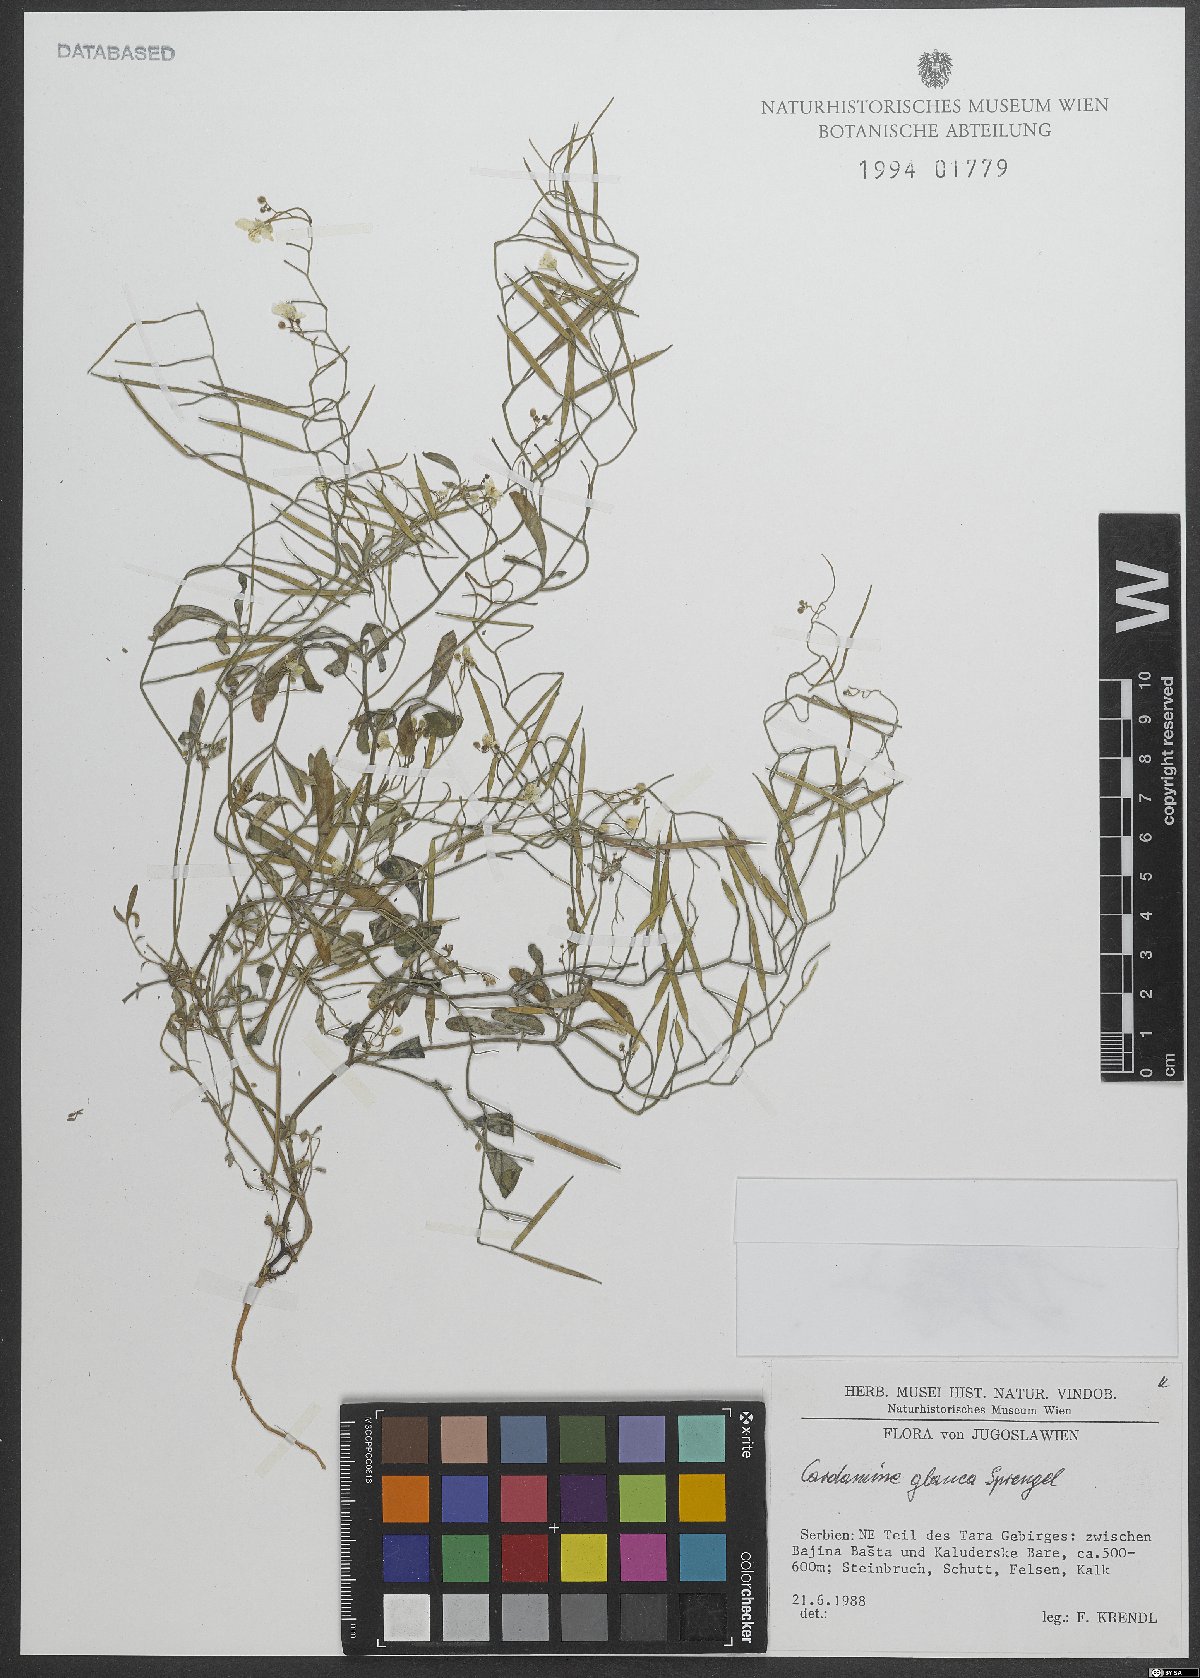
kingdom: Plantae
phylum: Tracheophyta
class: Magnoliopsida
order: Brassicales
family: Brassicaceae
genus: Cardamine
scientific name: Cardamine glauca
